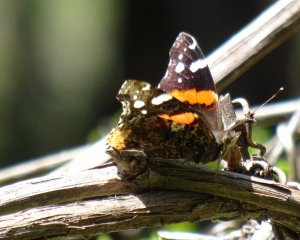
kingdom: Animalia
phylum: Arthropoda
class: Insecta
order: Lepidoptera
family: Nymphalidae
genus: Vanessa
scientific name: Vanessa atalanta
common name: Red Admiral
